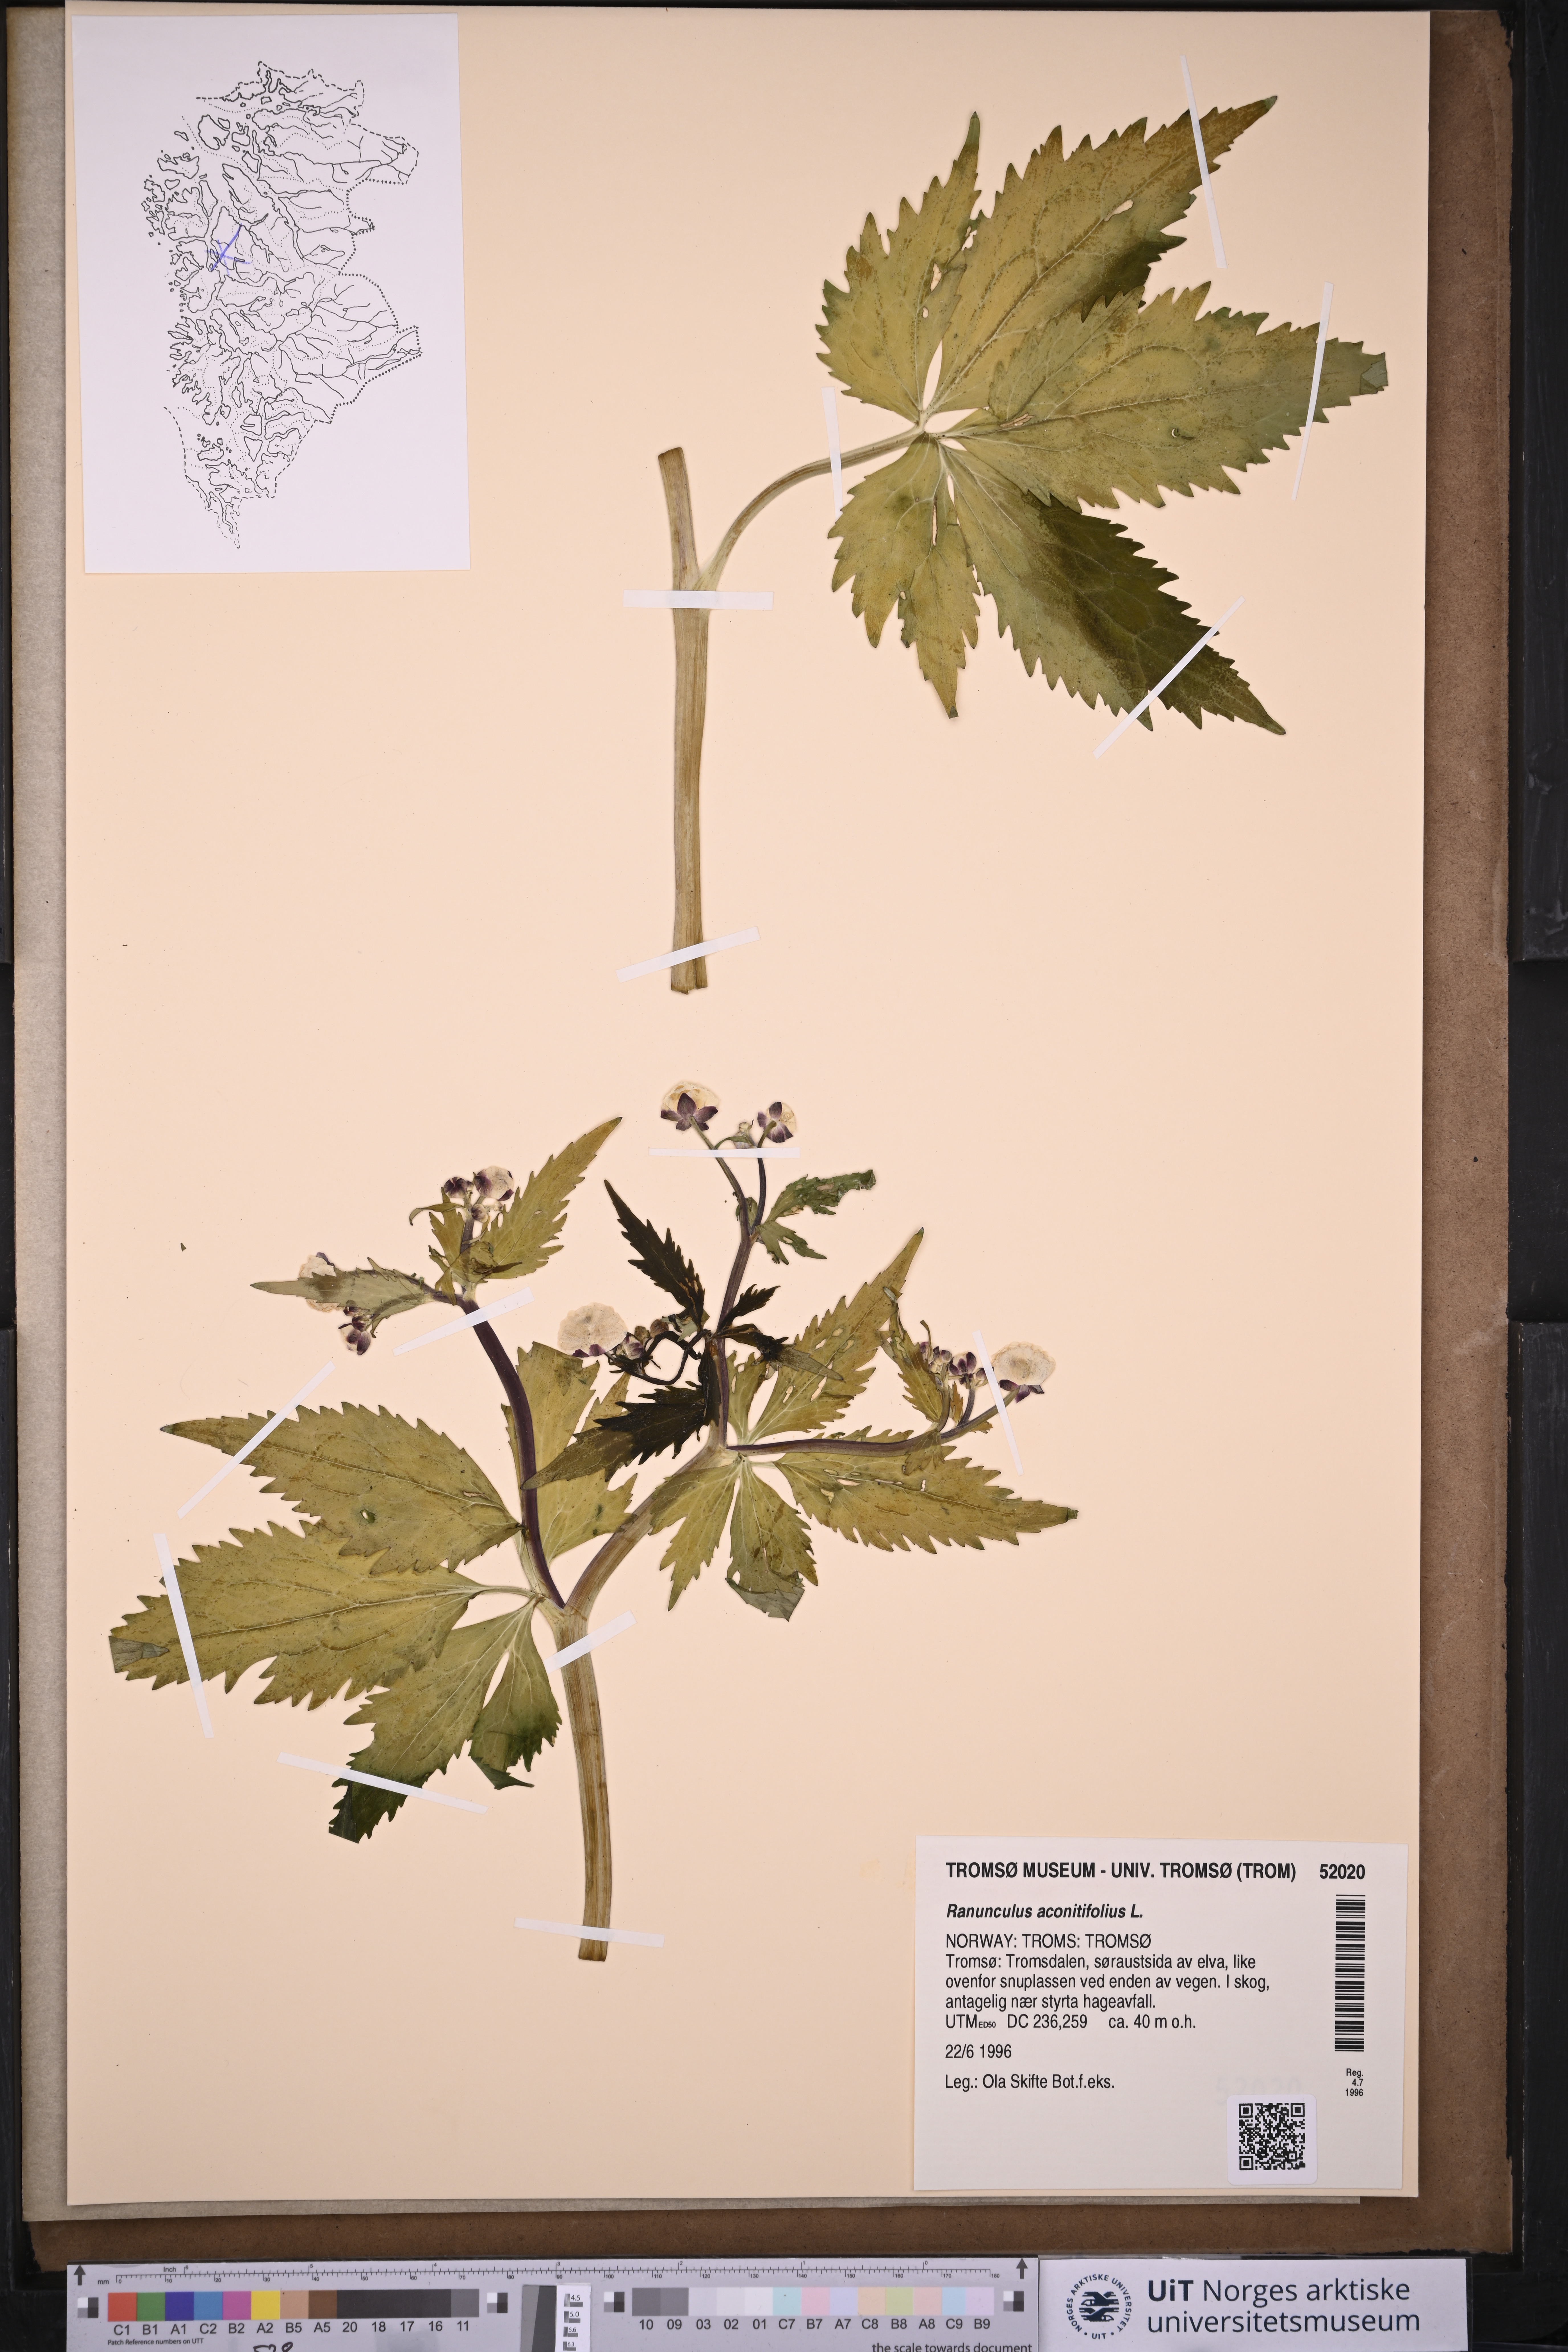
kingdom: Plantae
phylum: Tracheophyta
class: Magnoliopsida
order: Ranunculales
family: Ranunculaceae
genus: Ranunculus
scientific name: Ranunculus aconitifolius
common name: Aconite-leaved buttercup
